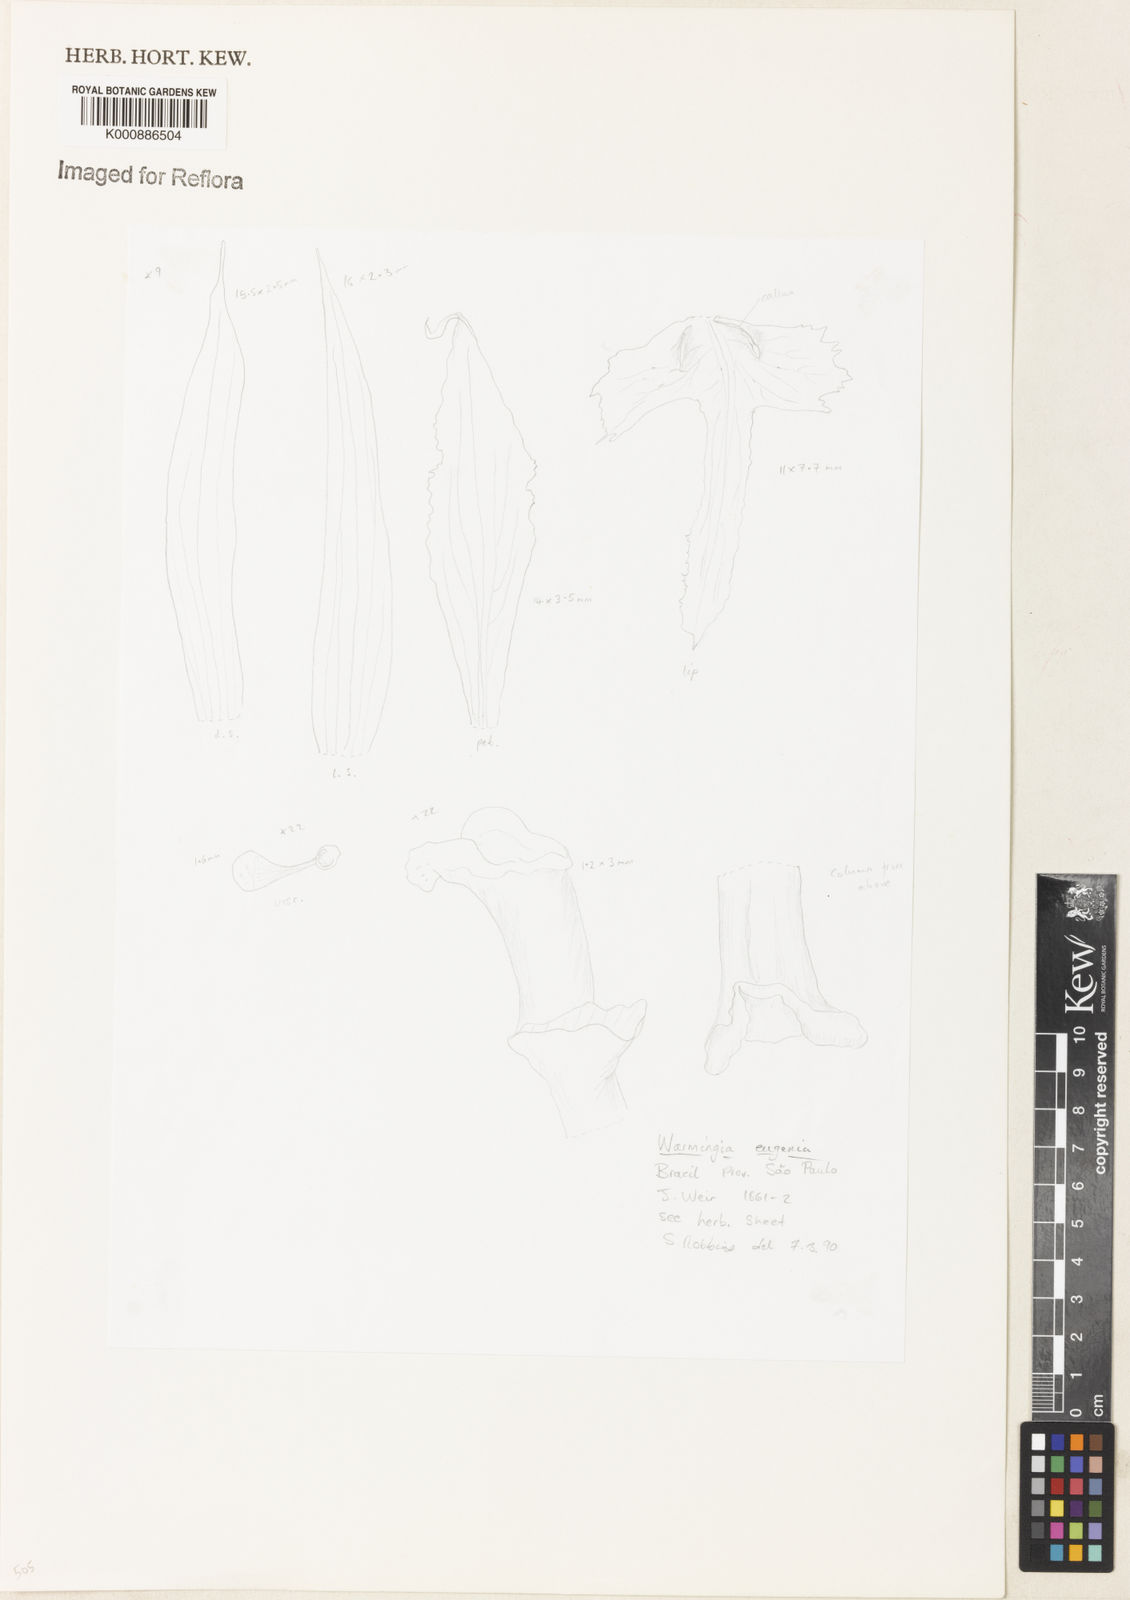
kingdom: Plantae
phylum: Tracheophyta
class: Liliopsida
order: Asparagales
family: Orchidaceae
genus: Warmingia
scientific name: Warmingia eugenii
